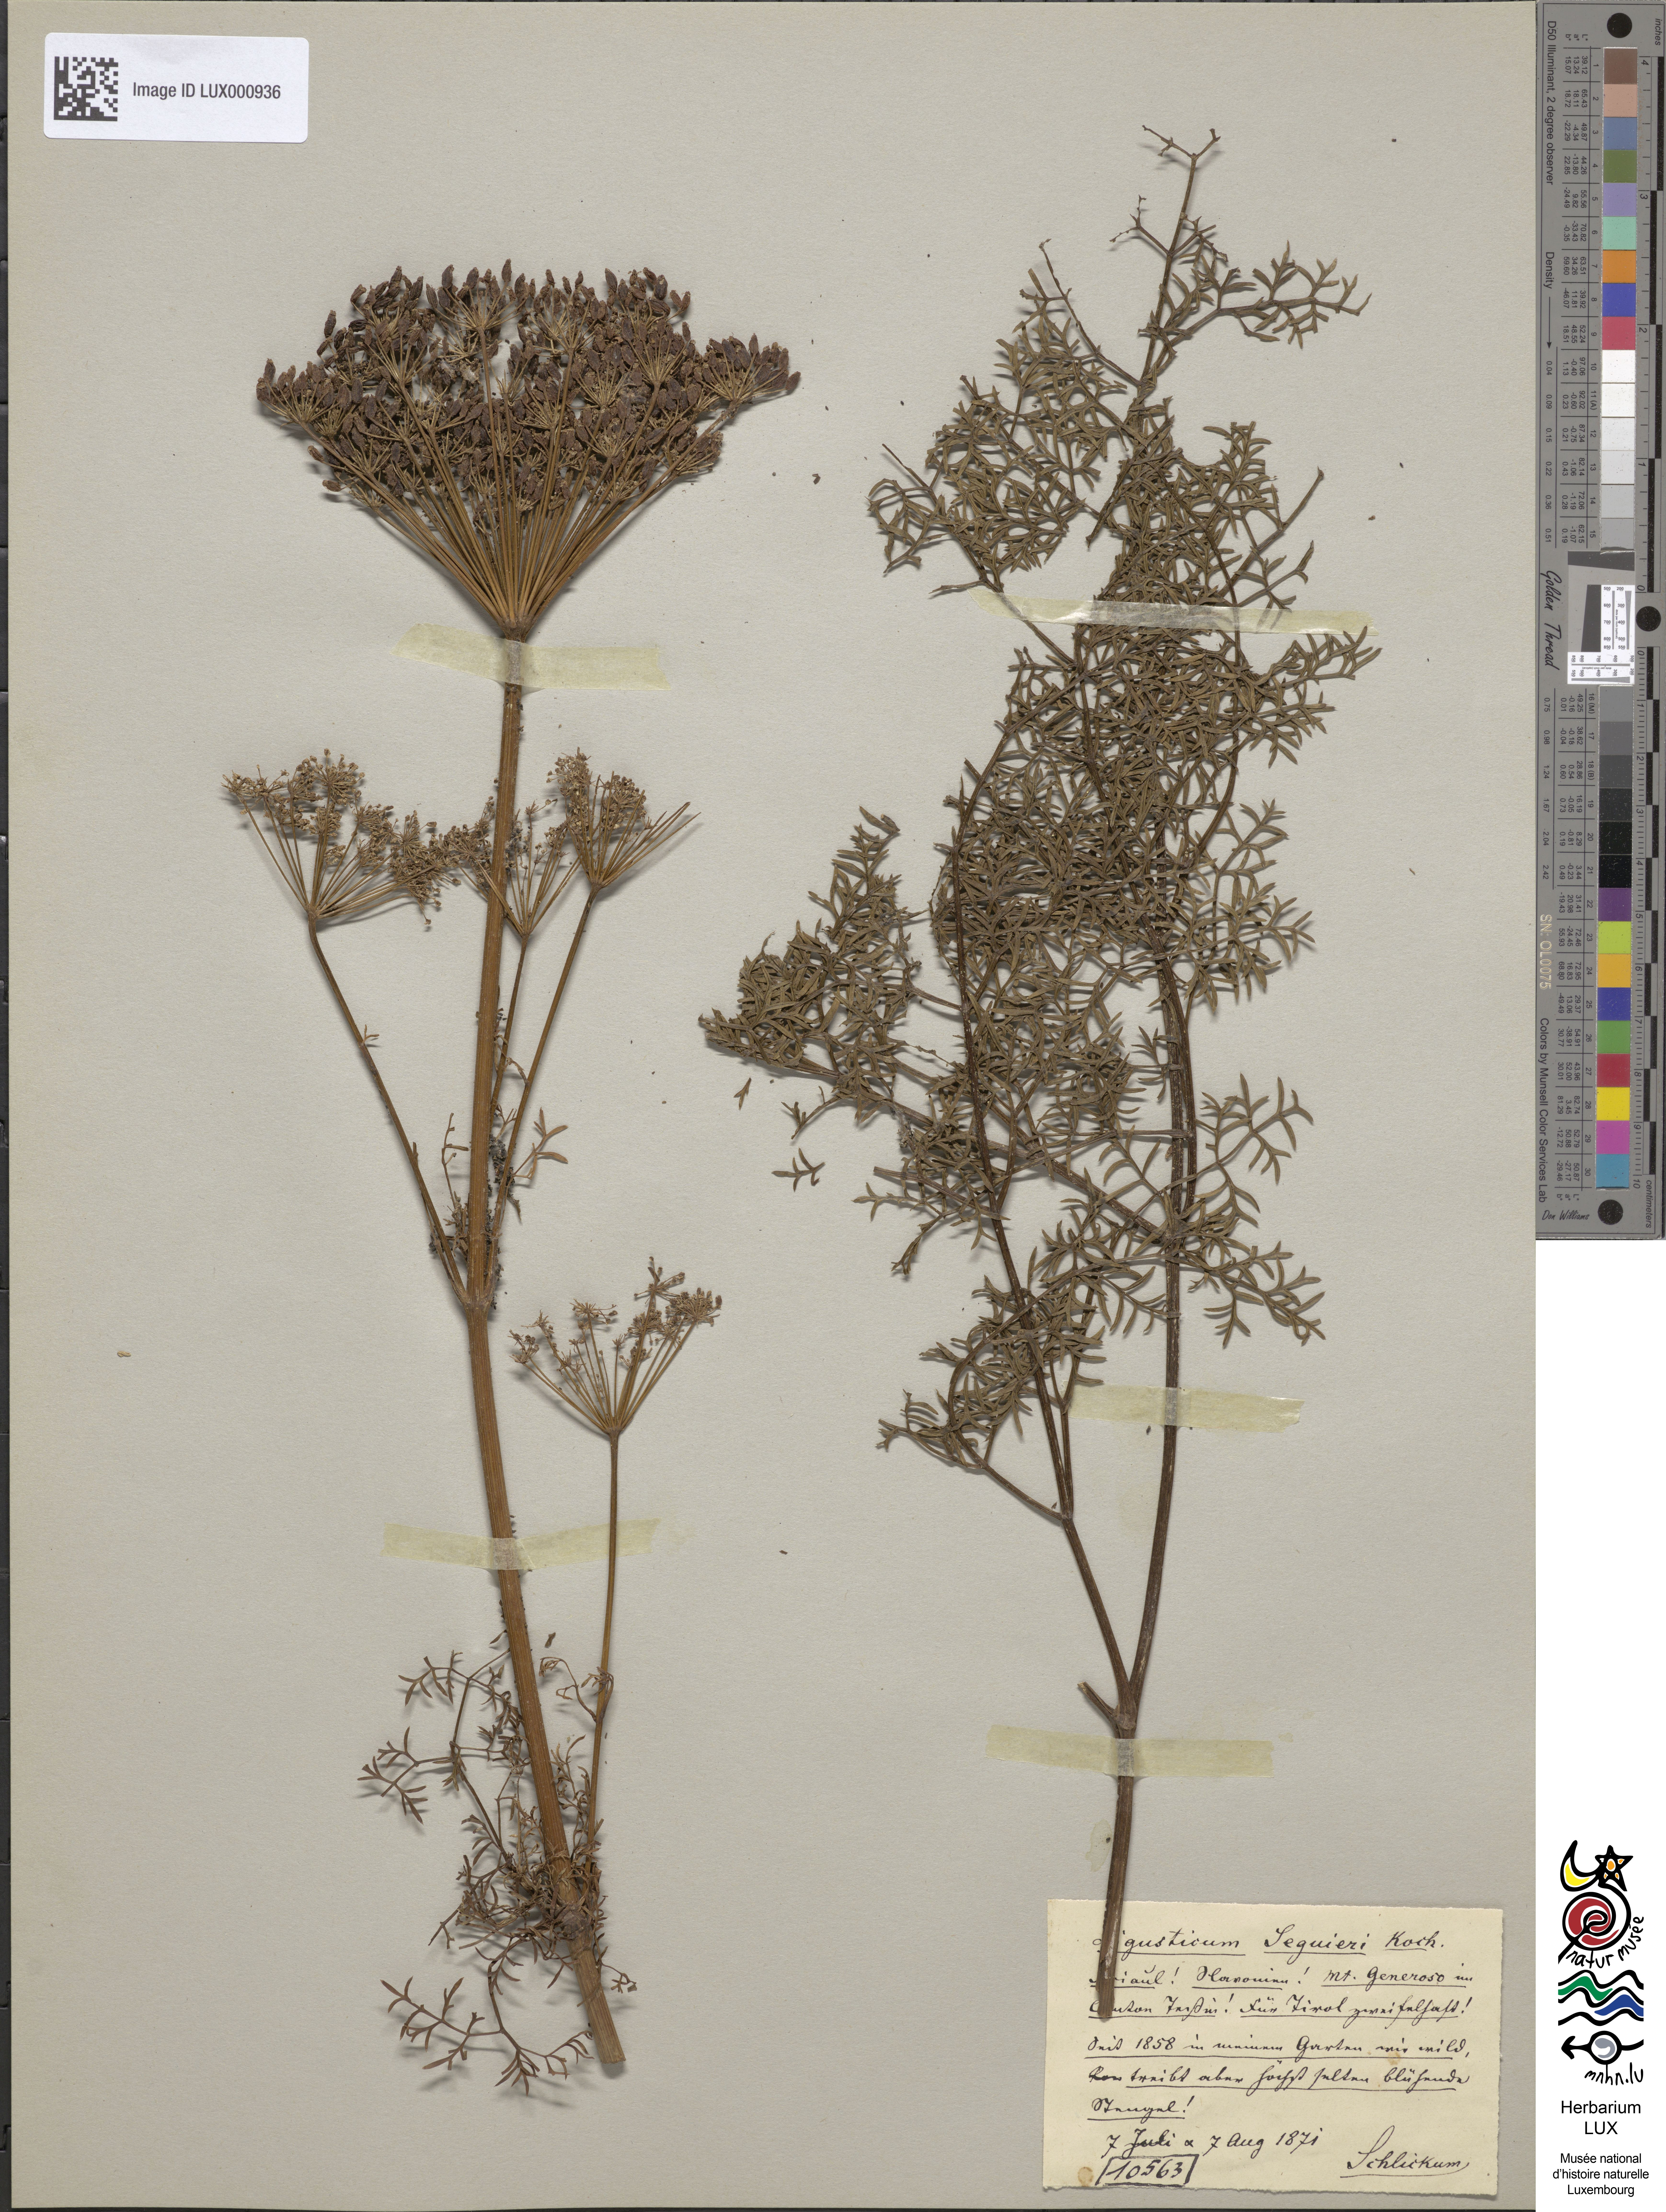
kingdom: Plantae
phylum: Tracheophyta
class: Magnoliopsida
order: Lamiales
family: Oleaceae
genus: Ligustrum
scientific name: Ligustrum lucidum
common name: Glossy privet
